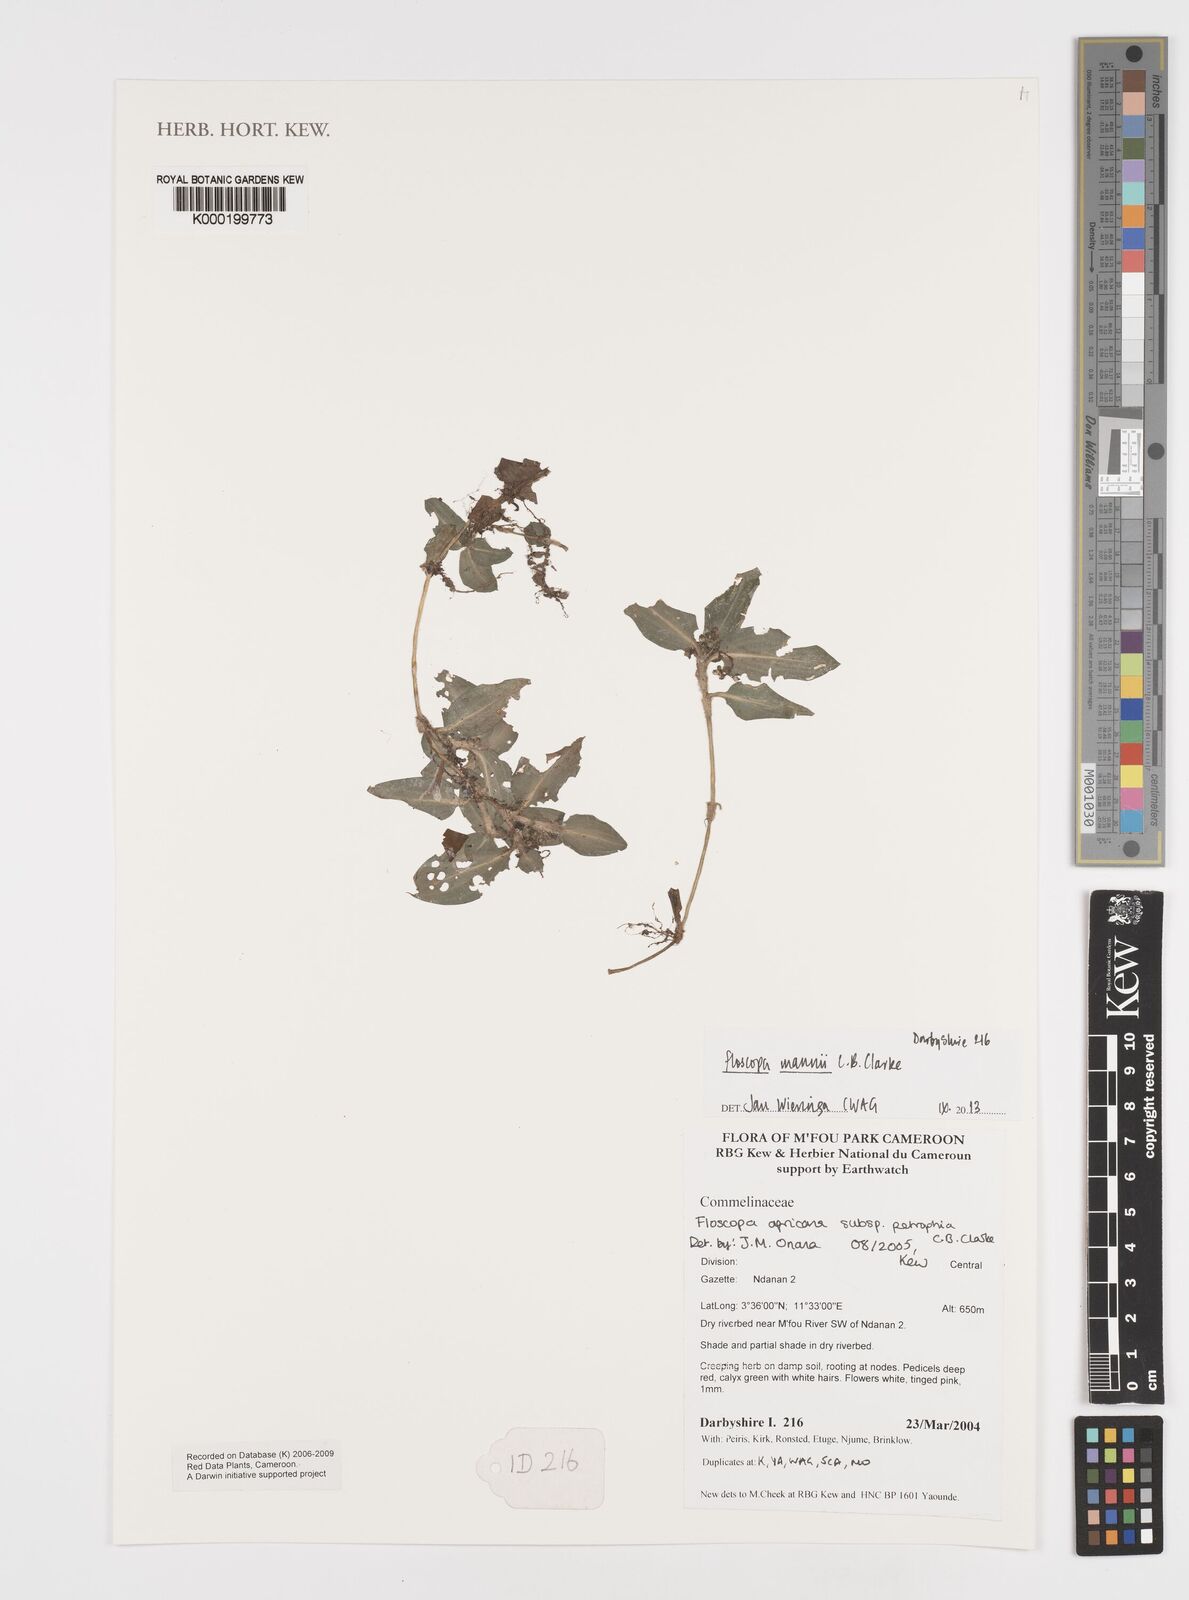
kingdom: Plantae
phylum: Tracheophyta
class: Liliopsida
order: Commelinales
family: Commelinaceae
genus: Floscopa
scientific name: Floscopa mannii
